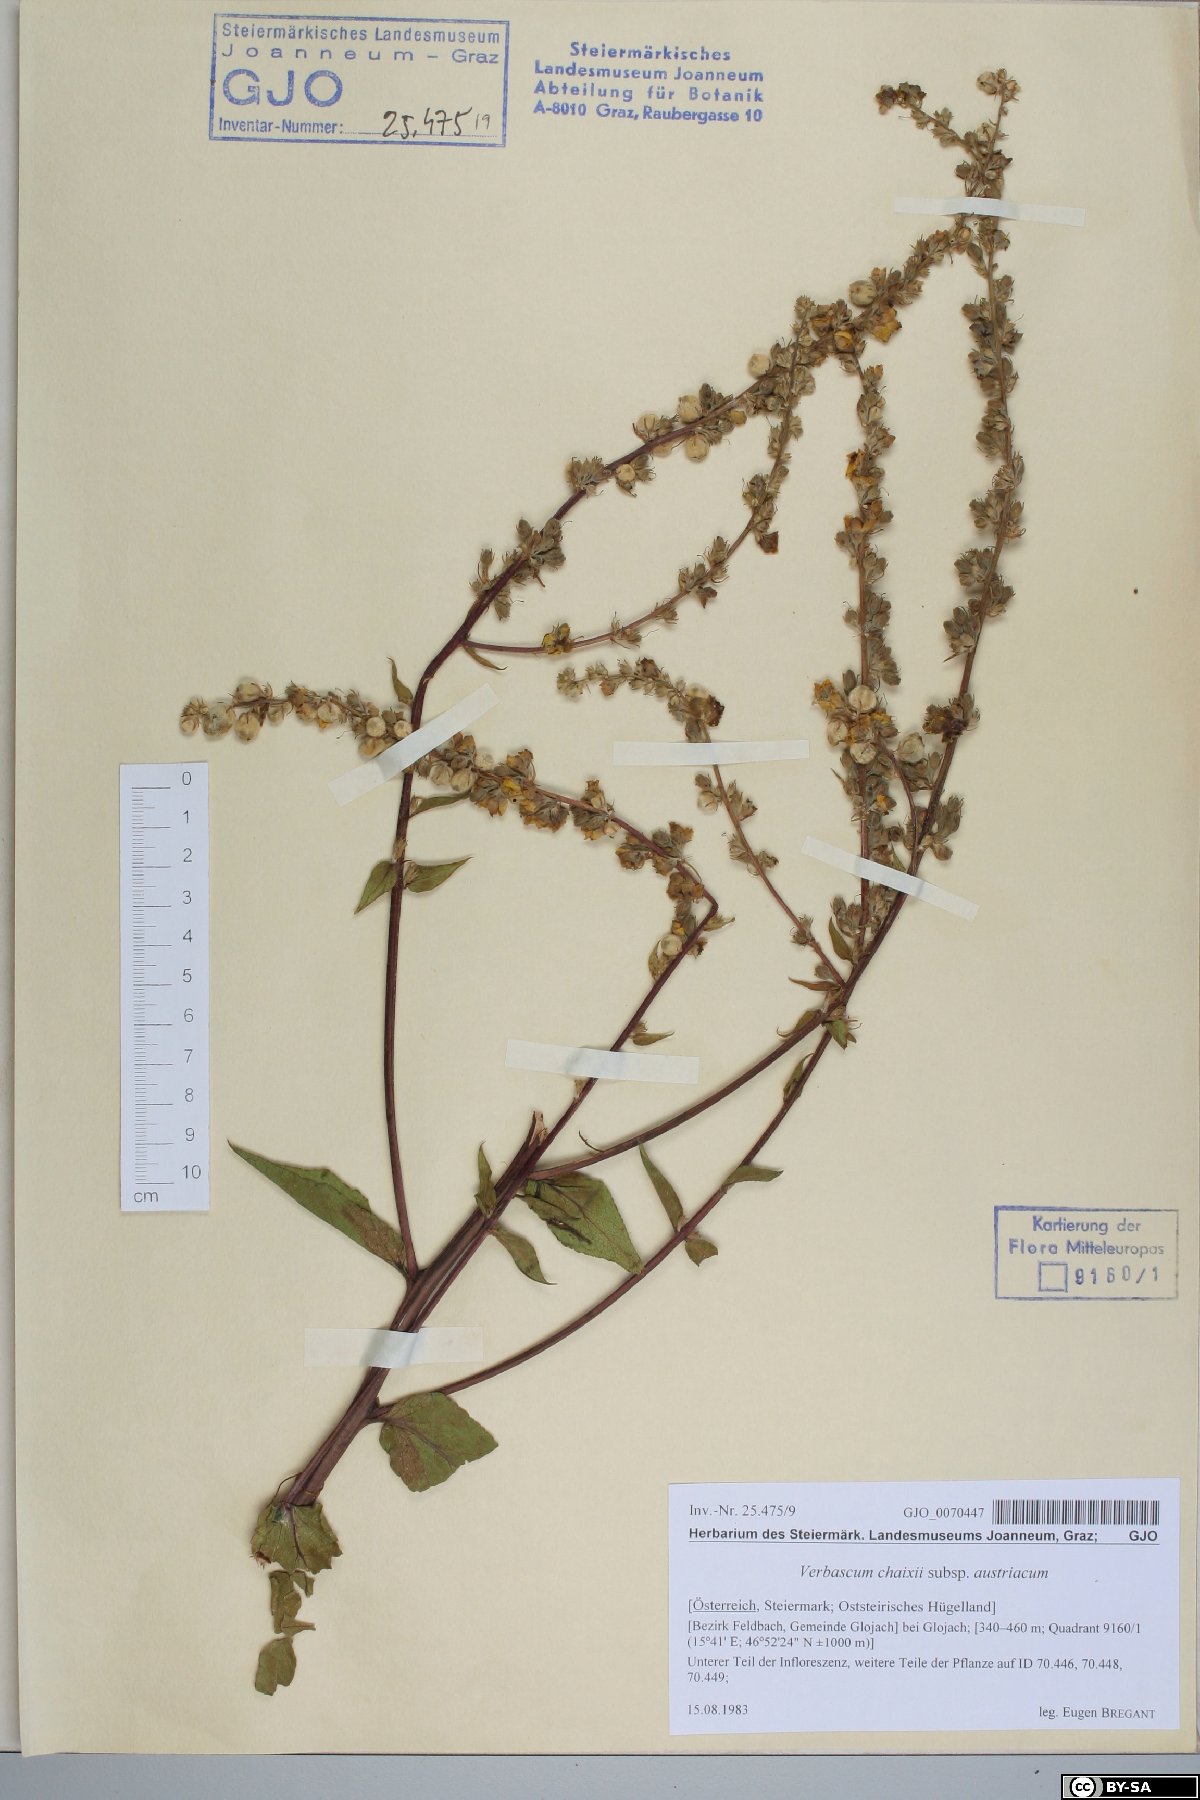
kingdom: Plantae
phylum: Tracheophyta
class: Magnoliopsida
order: Lamiales
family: Scrophulariaceae
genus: Verbascum
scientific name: Verbascum chaixii
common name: Nettle-leaved mullein
